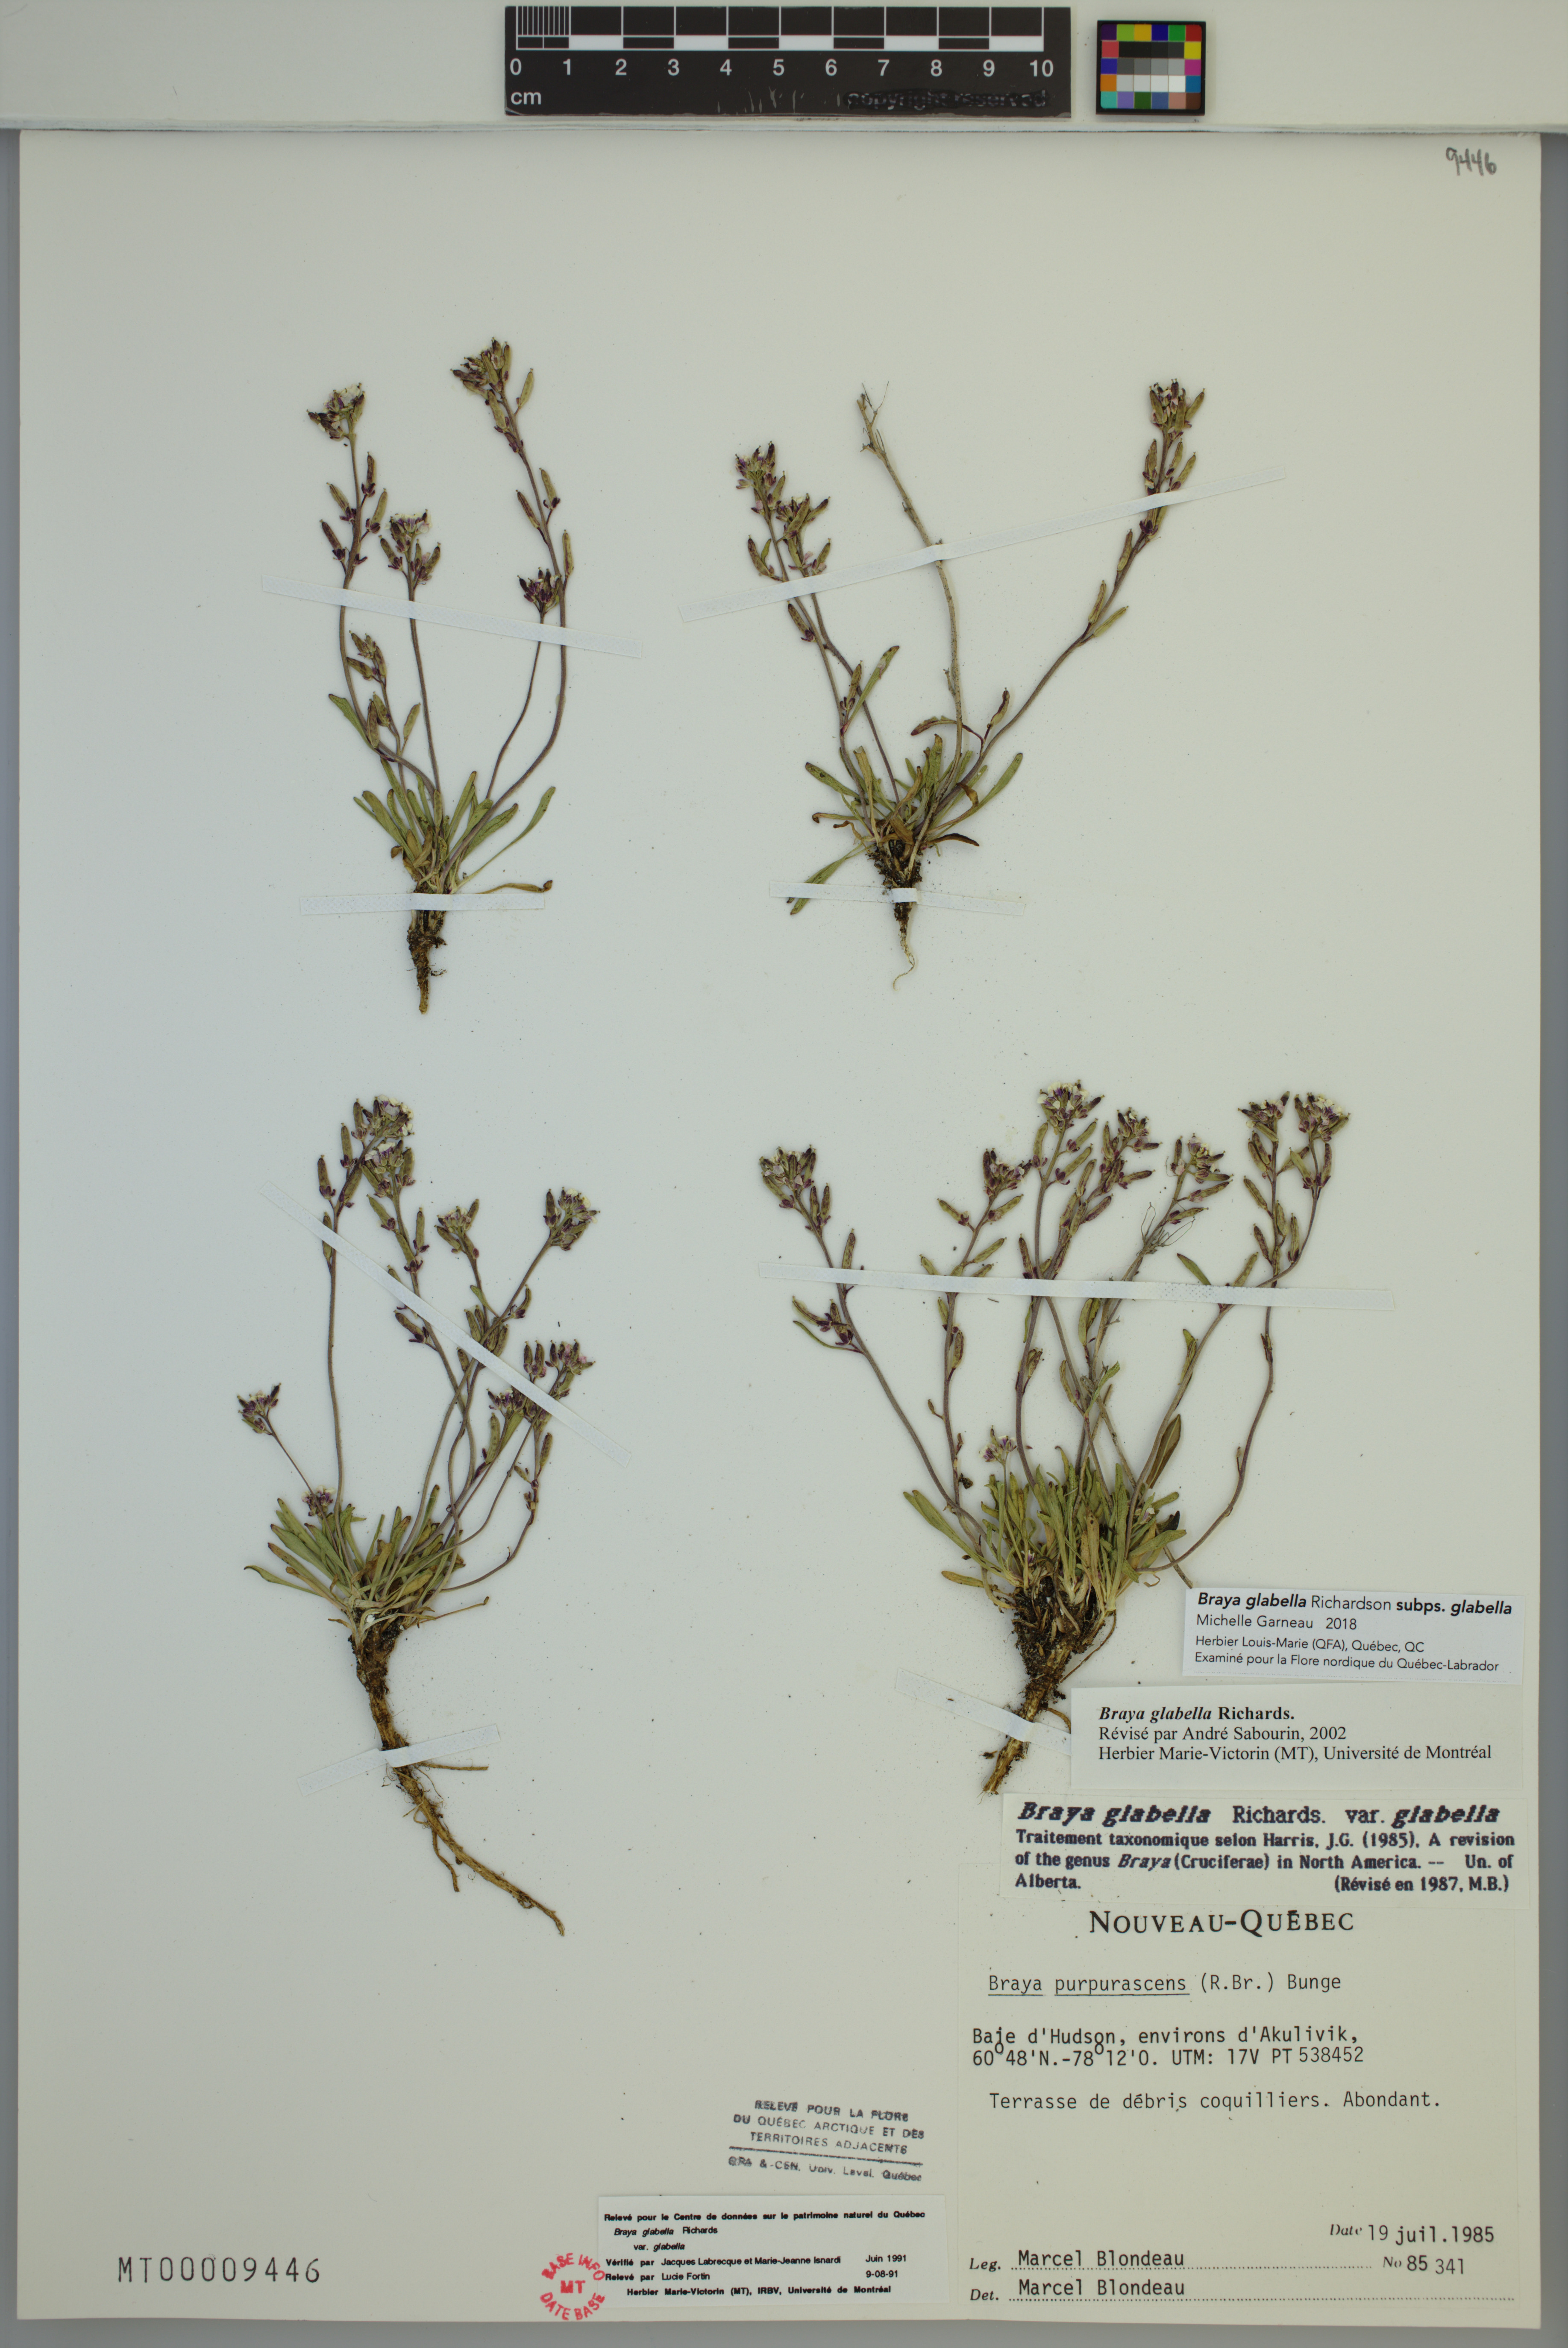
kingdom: Plantae
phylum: Tracheophyta
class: Magnoliopsida
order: Brassicales
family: Brassicaceae
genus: Braya
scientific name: Braya glabella
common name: Smooth braya
